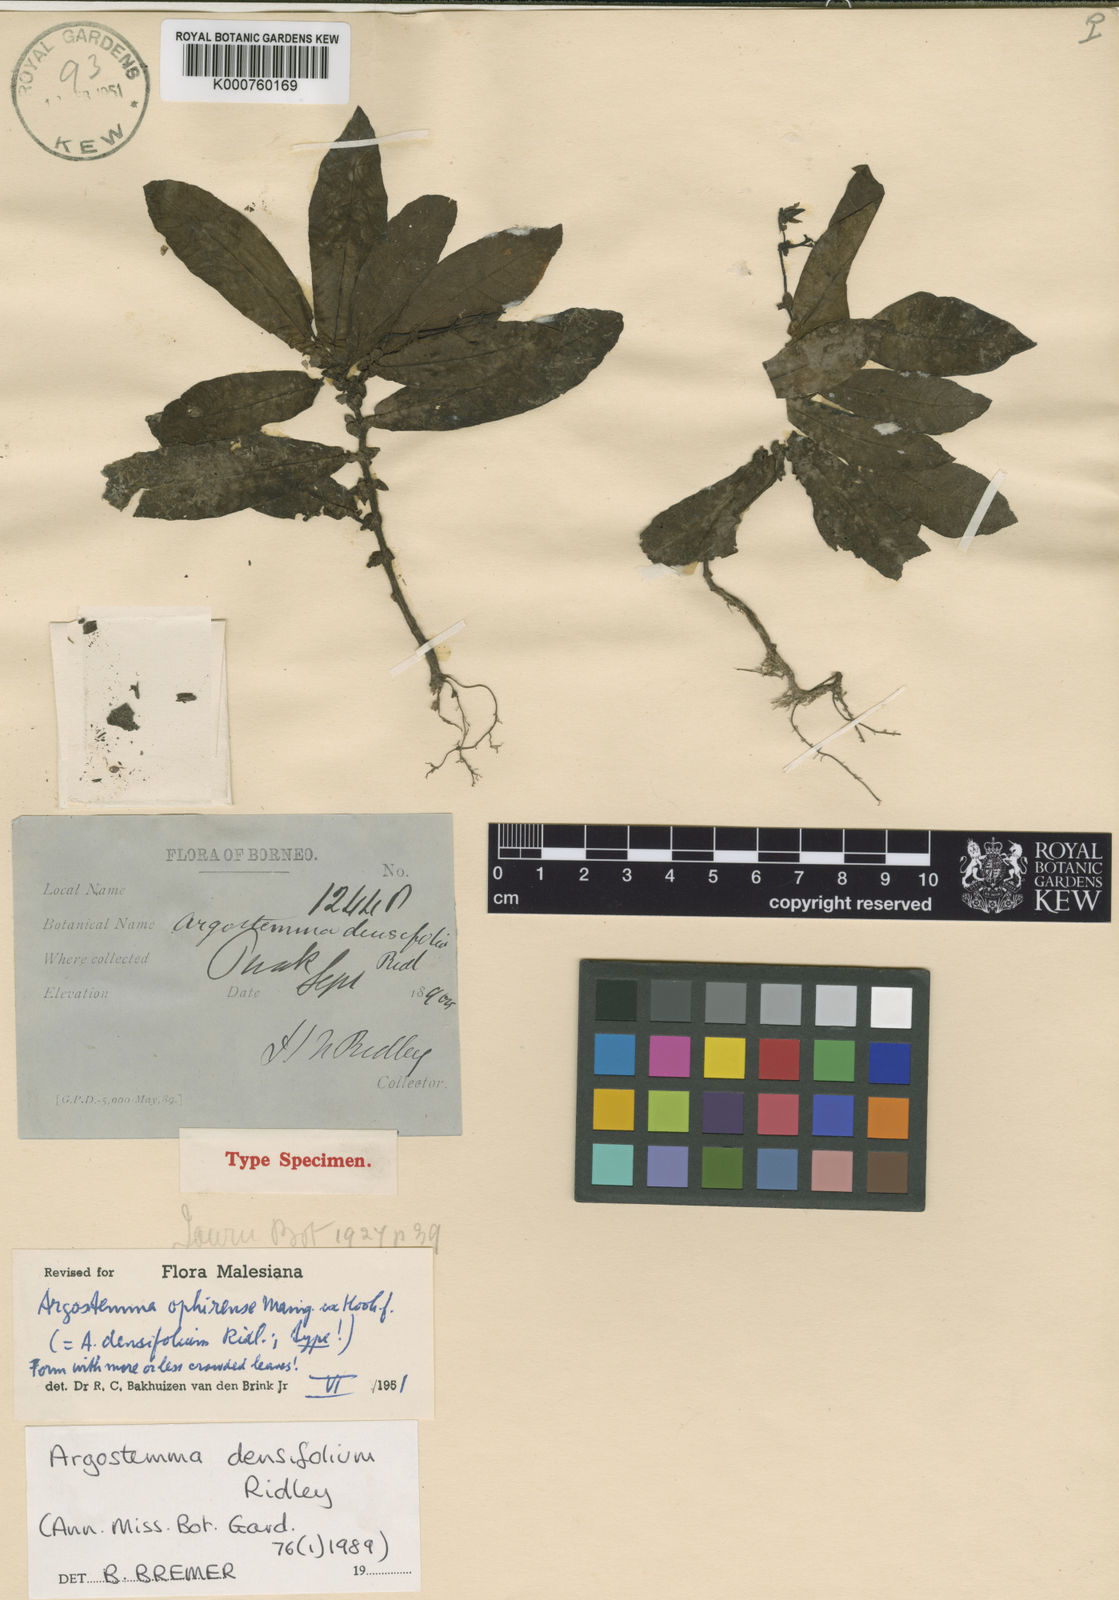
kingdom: Plantae
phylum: Tracheophyta
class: Magnoliopsida
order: Gentianales
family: Rubiaceae
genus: Argostemma
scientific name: Argostemma densifolium
